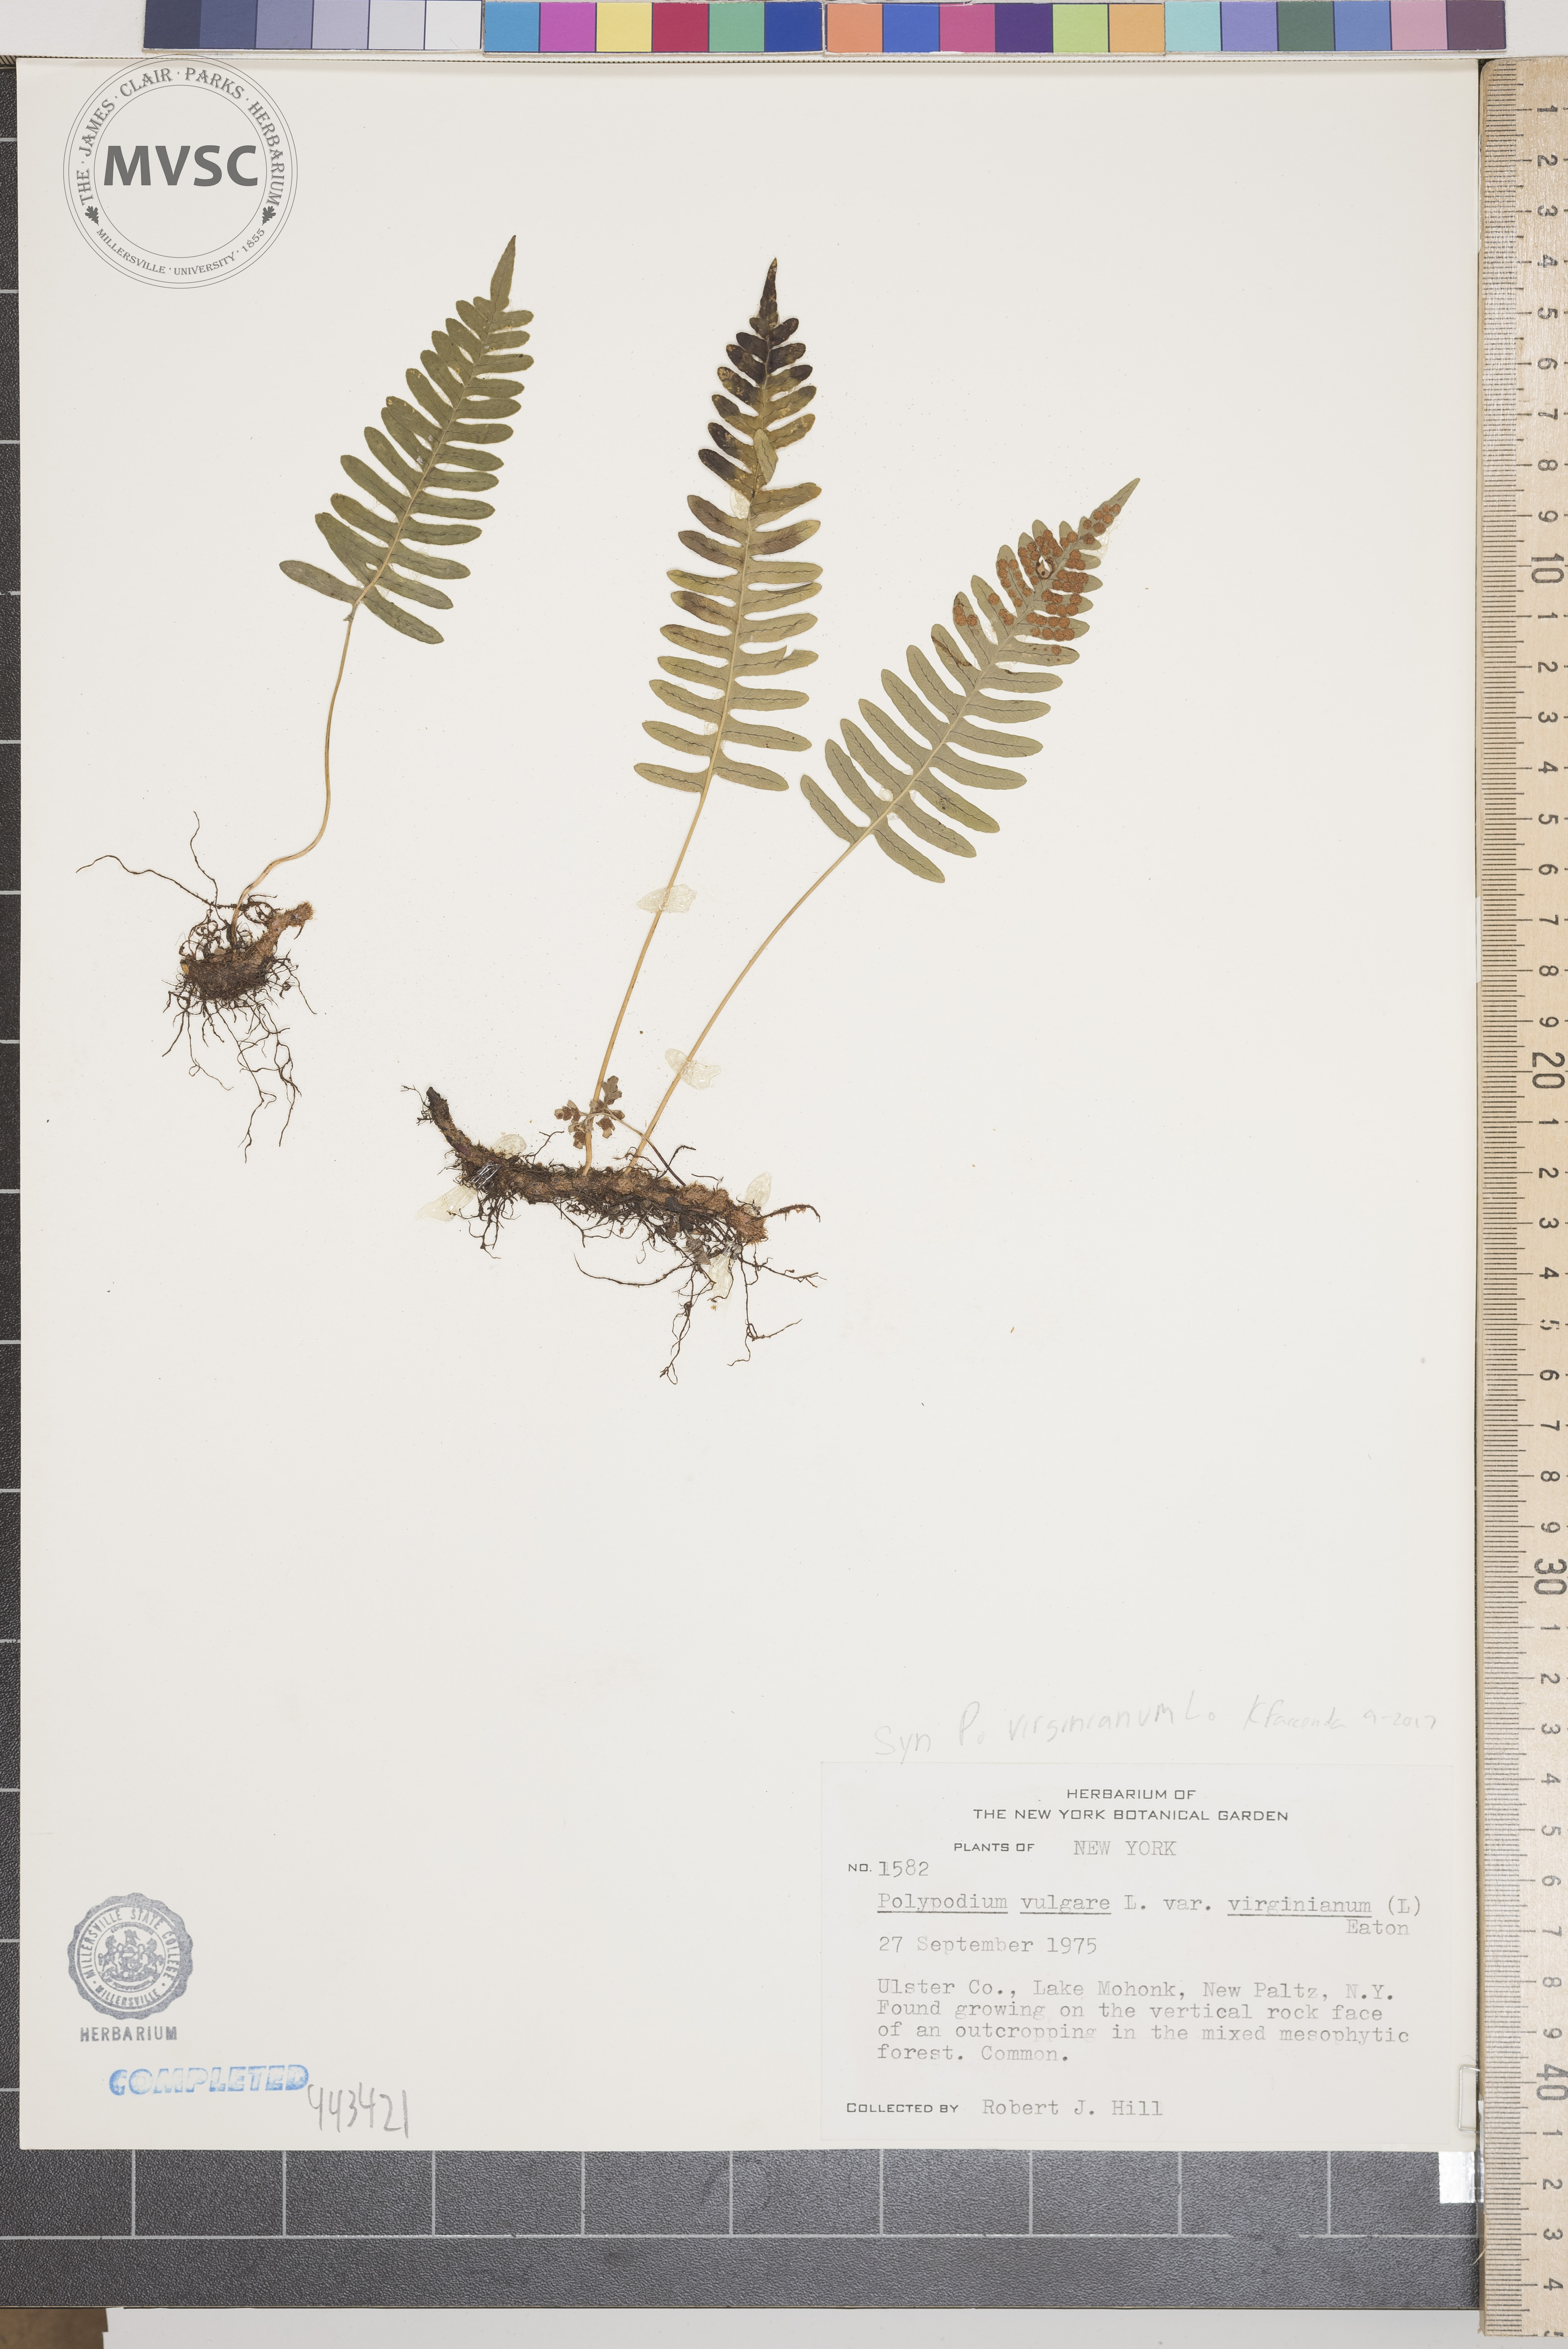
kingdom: Plantae
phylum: Tracheophyta
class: Polypodiopsida
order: Polypodiales
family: Polypodiaceae
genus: Polypodium
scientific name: Polypodium virginianum
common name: American wall fern
